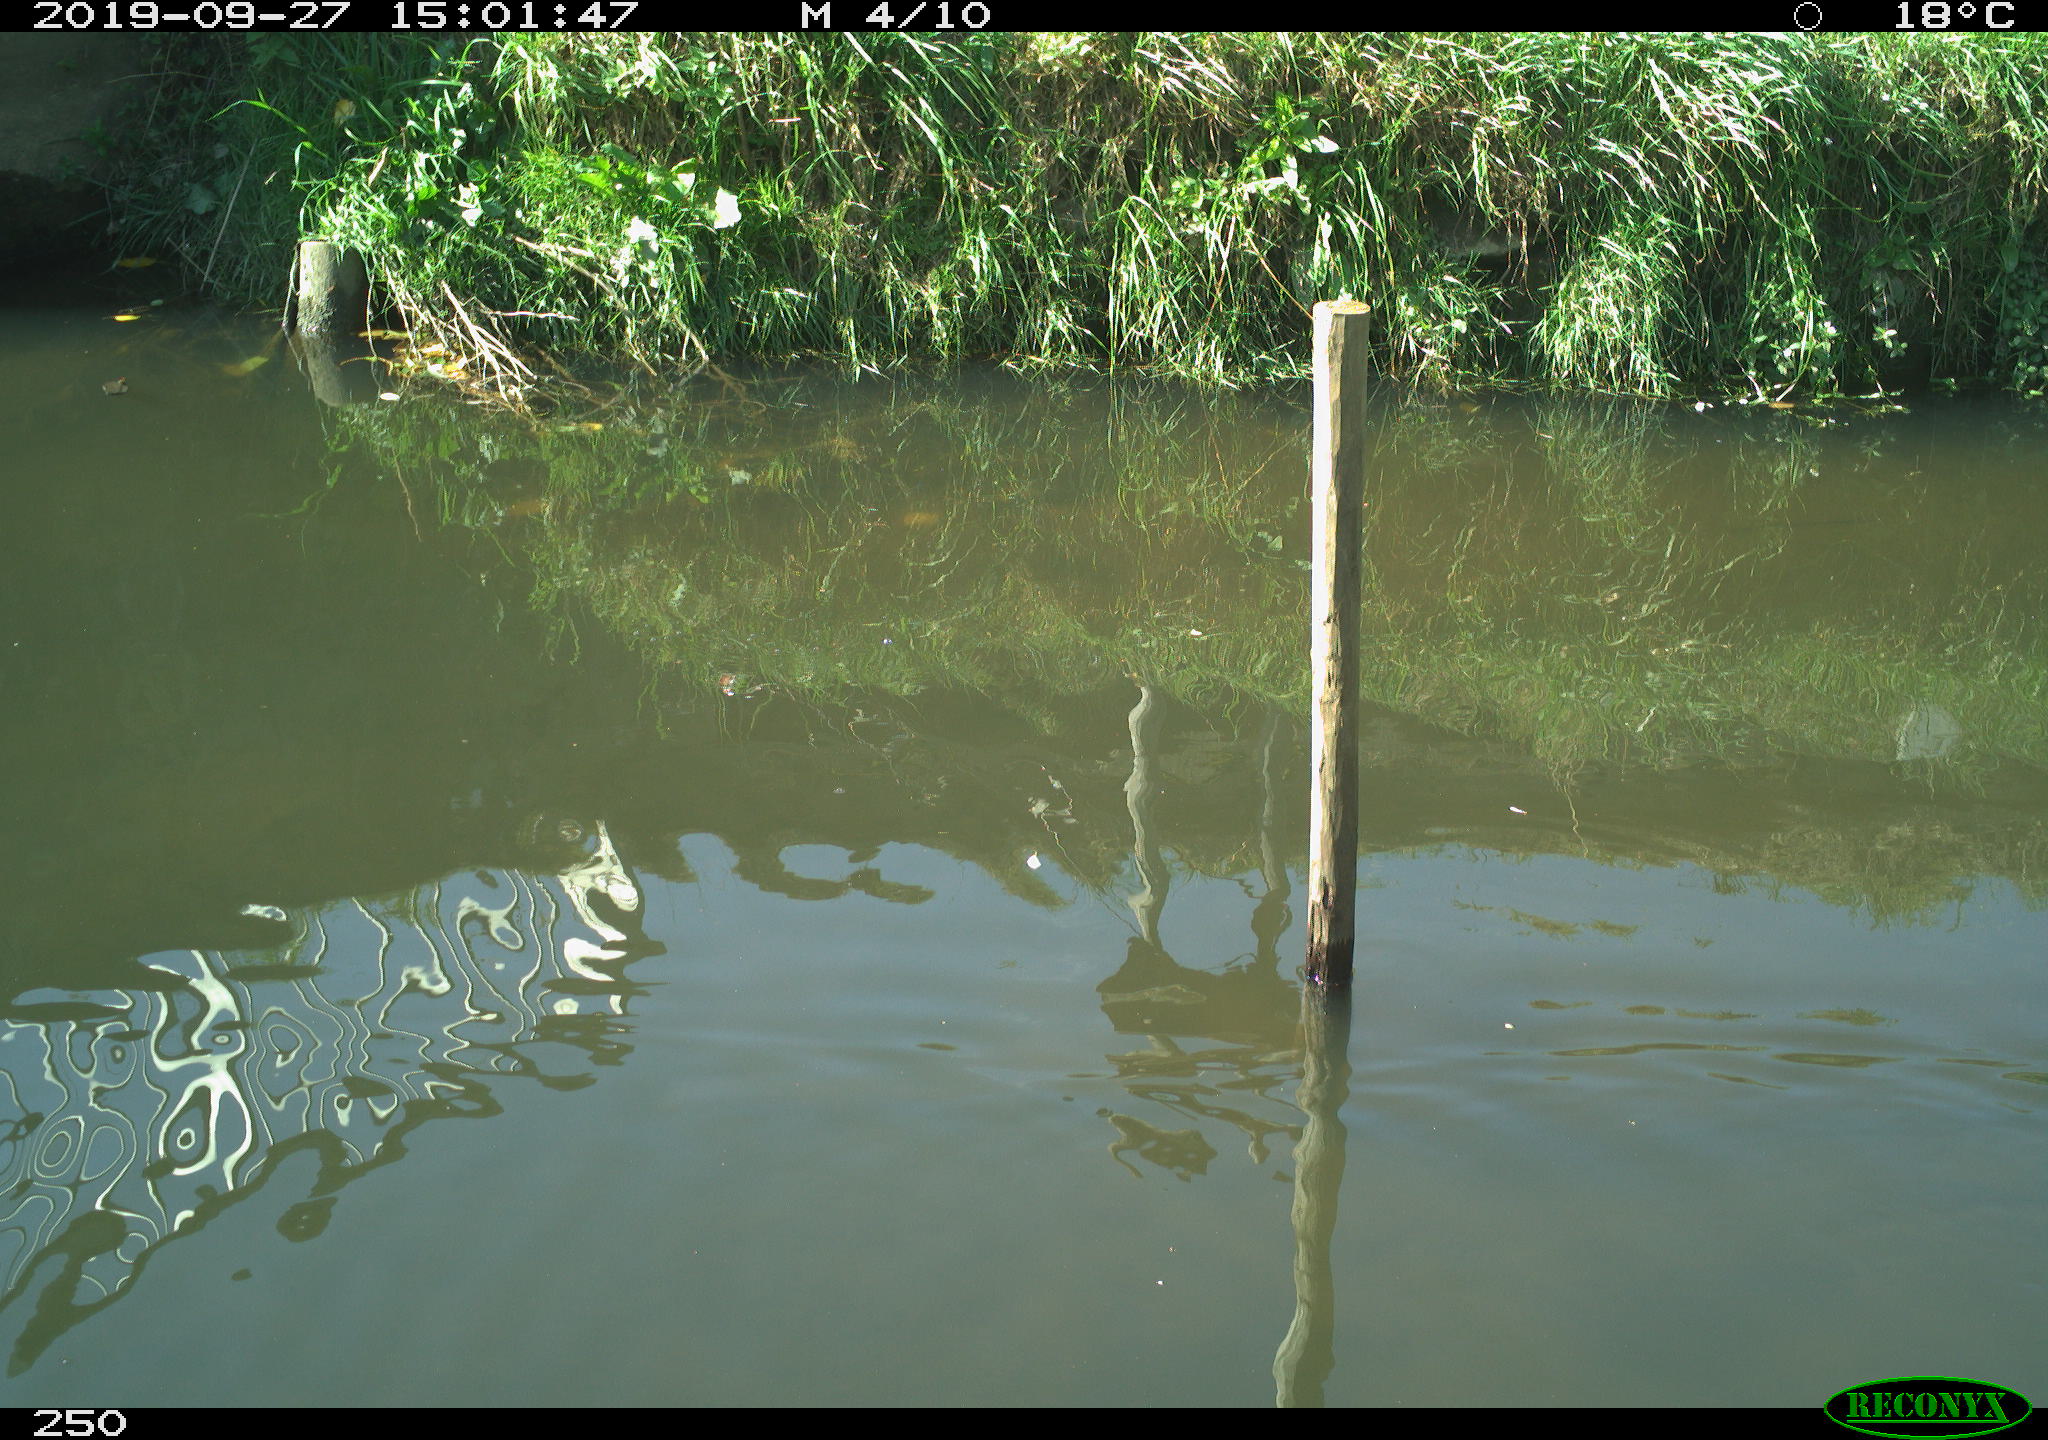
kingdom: Animalia
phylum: Chordata
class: Aves
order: Gruiformes
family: Rallidae
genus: Gallinula
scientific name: Gallinula chloropus
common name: Common moorhen
